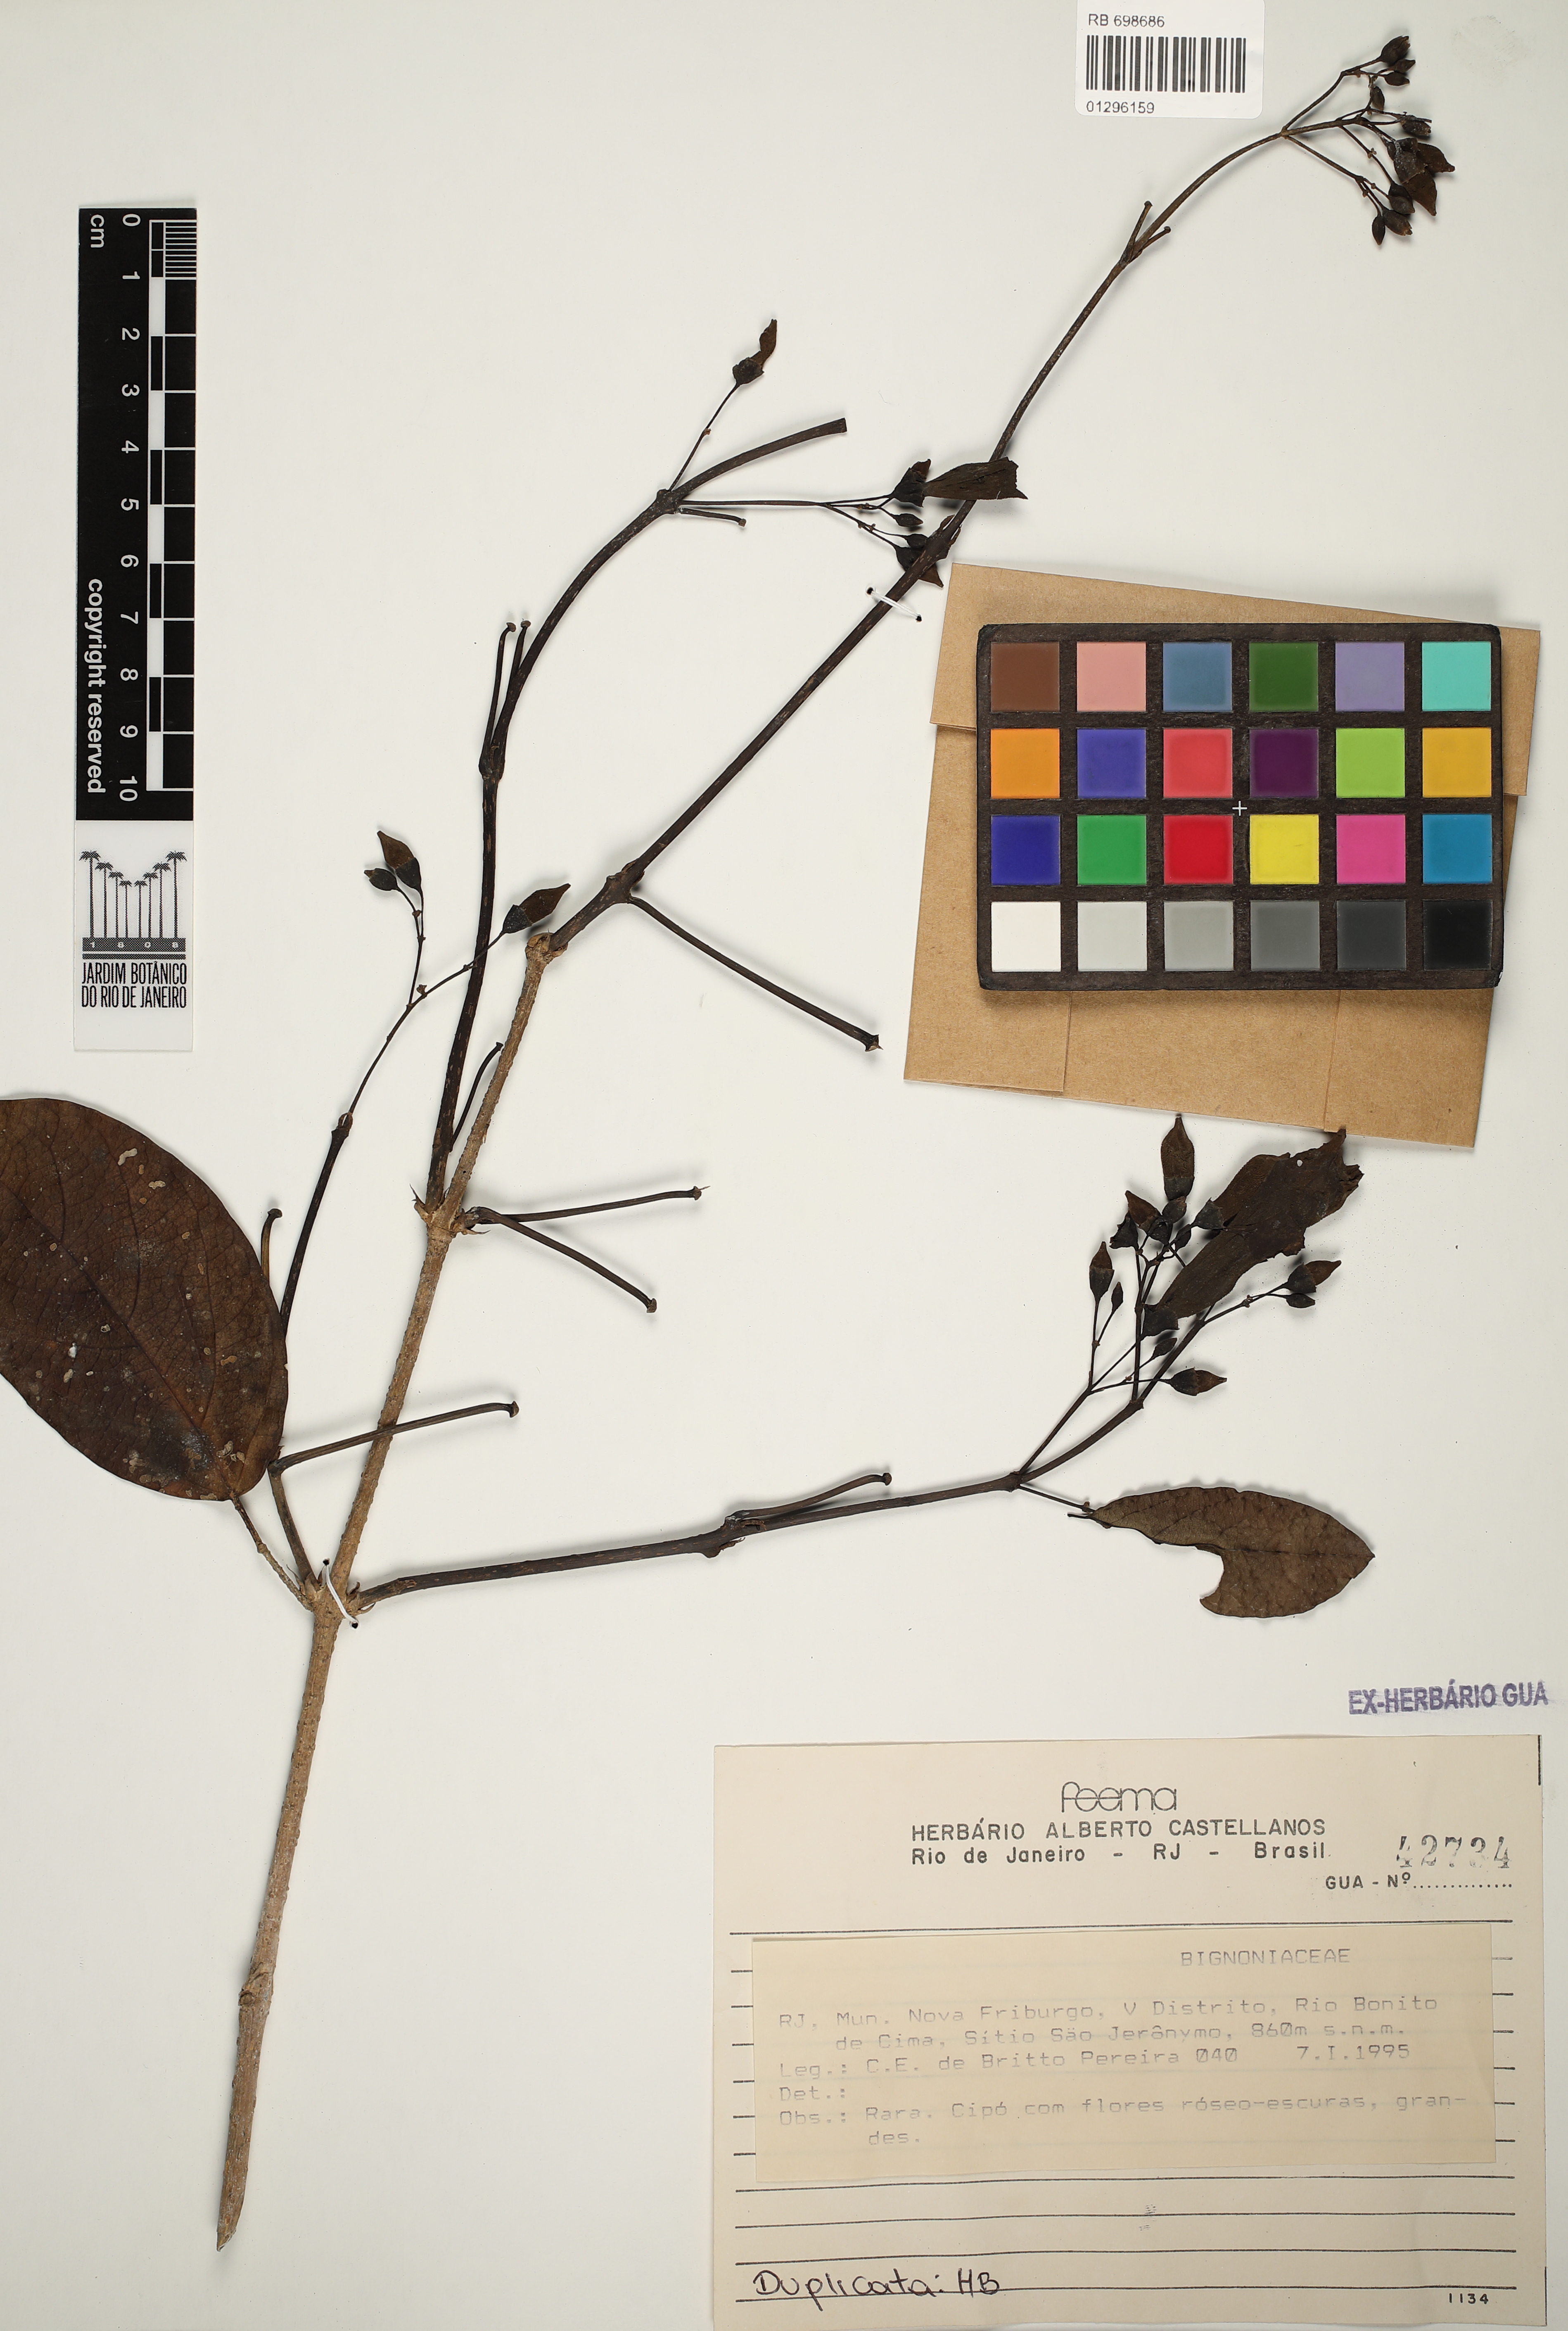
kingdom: Plantae
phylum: Tracheophyta
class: Magnoliopsida
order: Lamiales
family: Bignoniaceae
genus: Fridericia
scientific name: Fridericia speciosa
